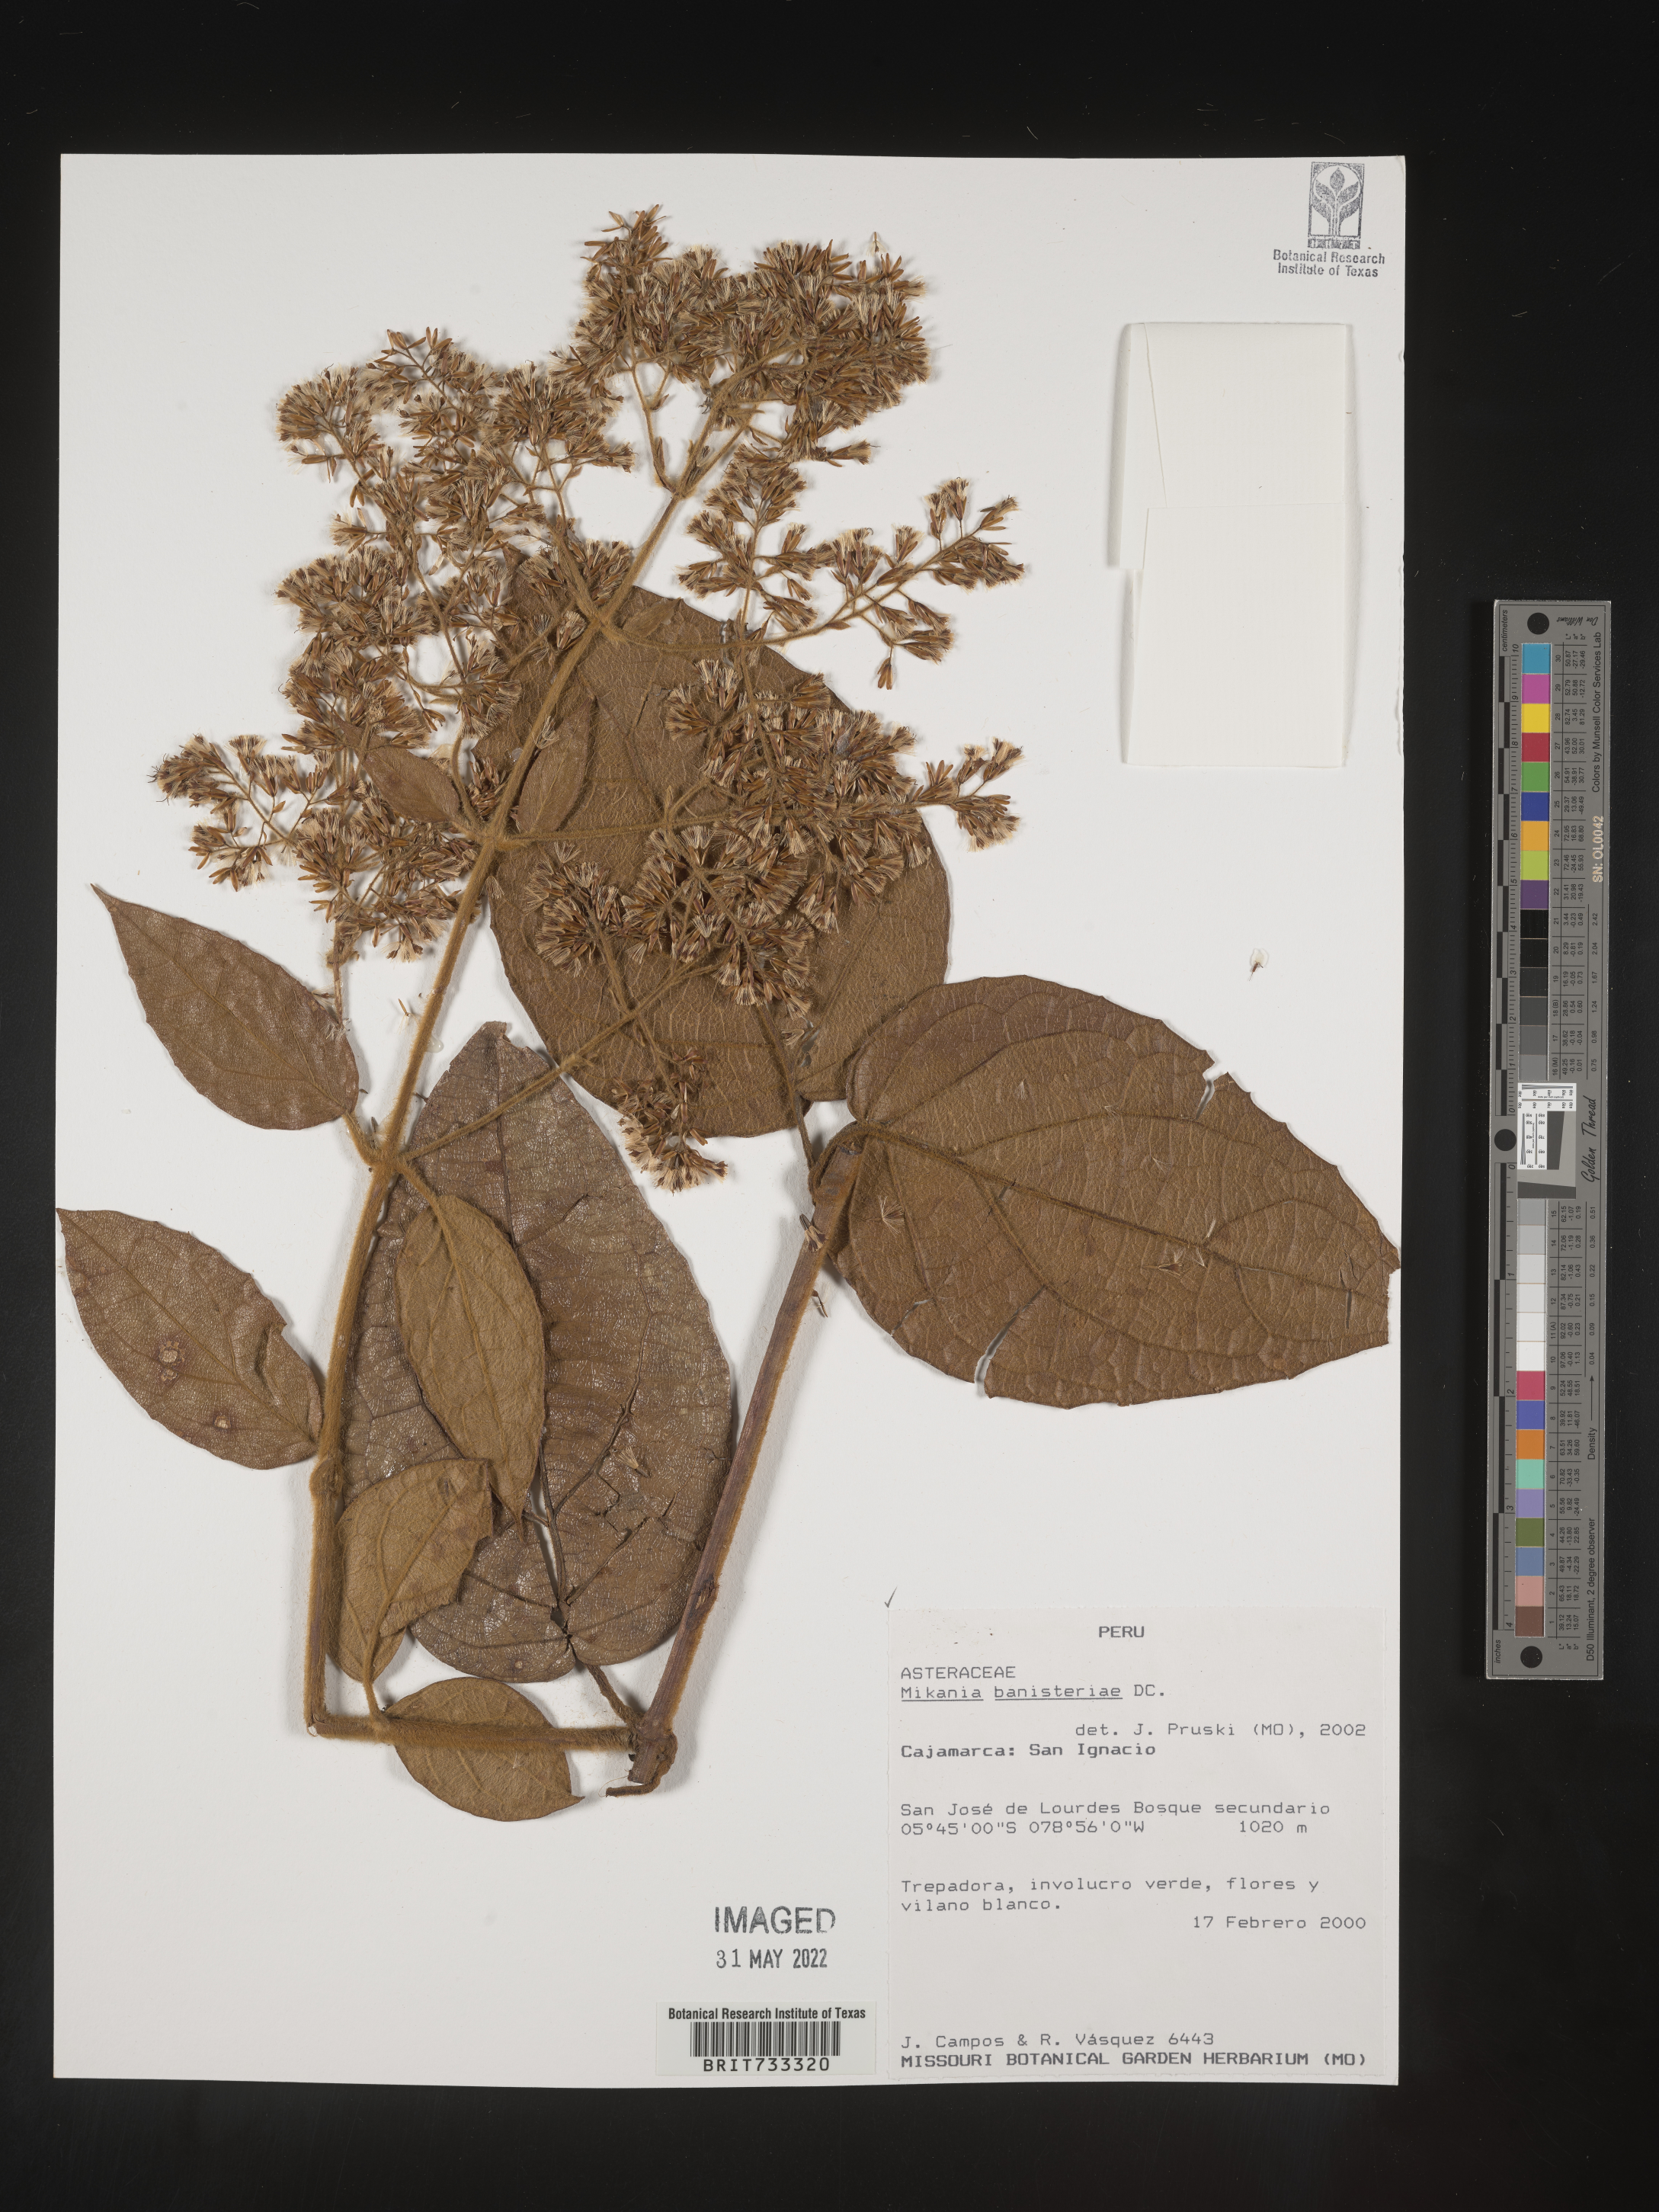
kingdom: Plantae
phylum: Tracheophyta
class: Magnoliopsida
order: Asterales
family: Asteraceae
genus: Mikania
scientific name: Mikania
